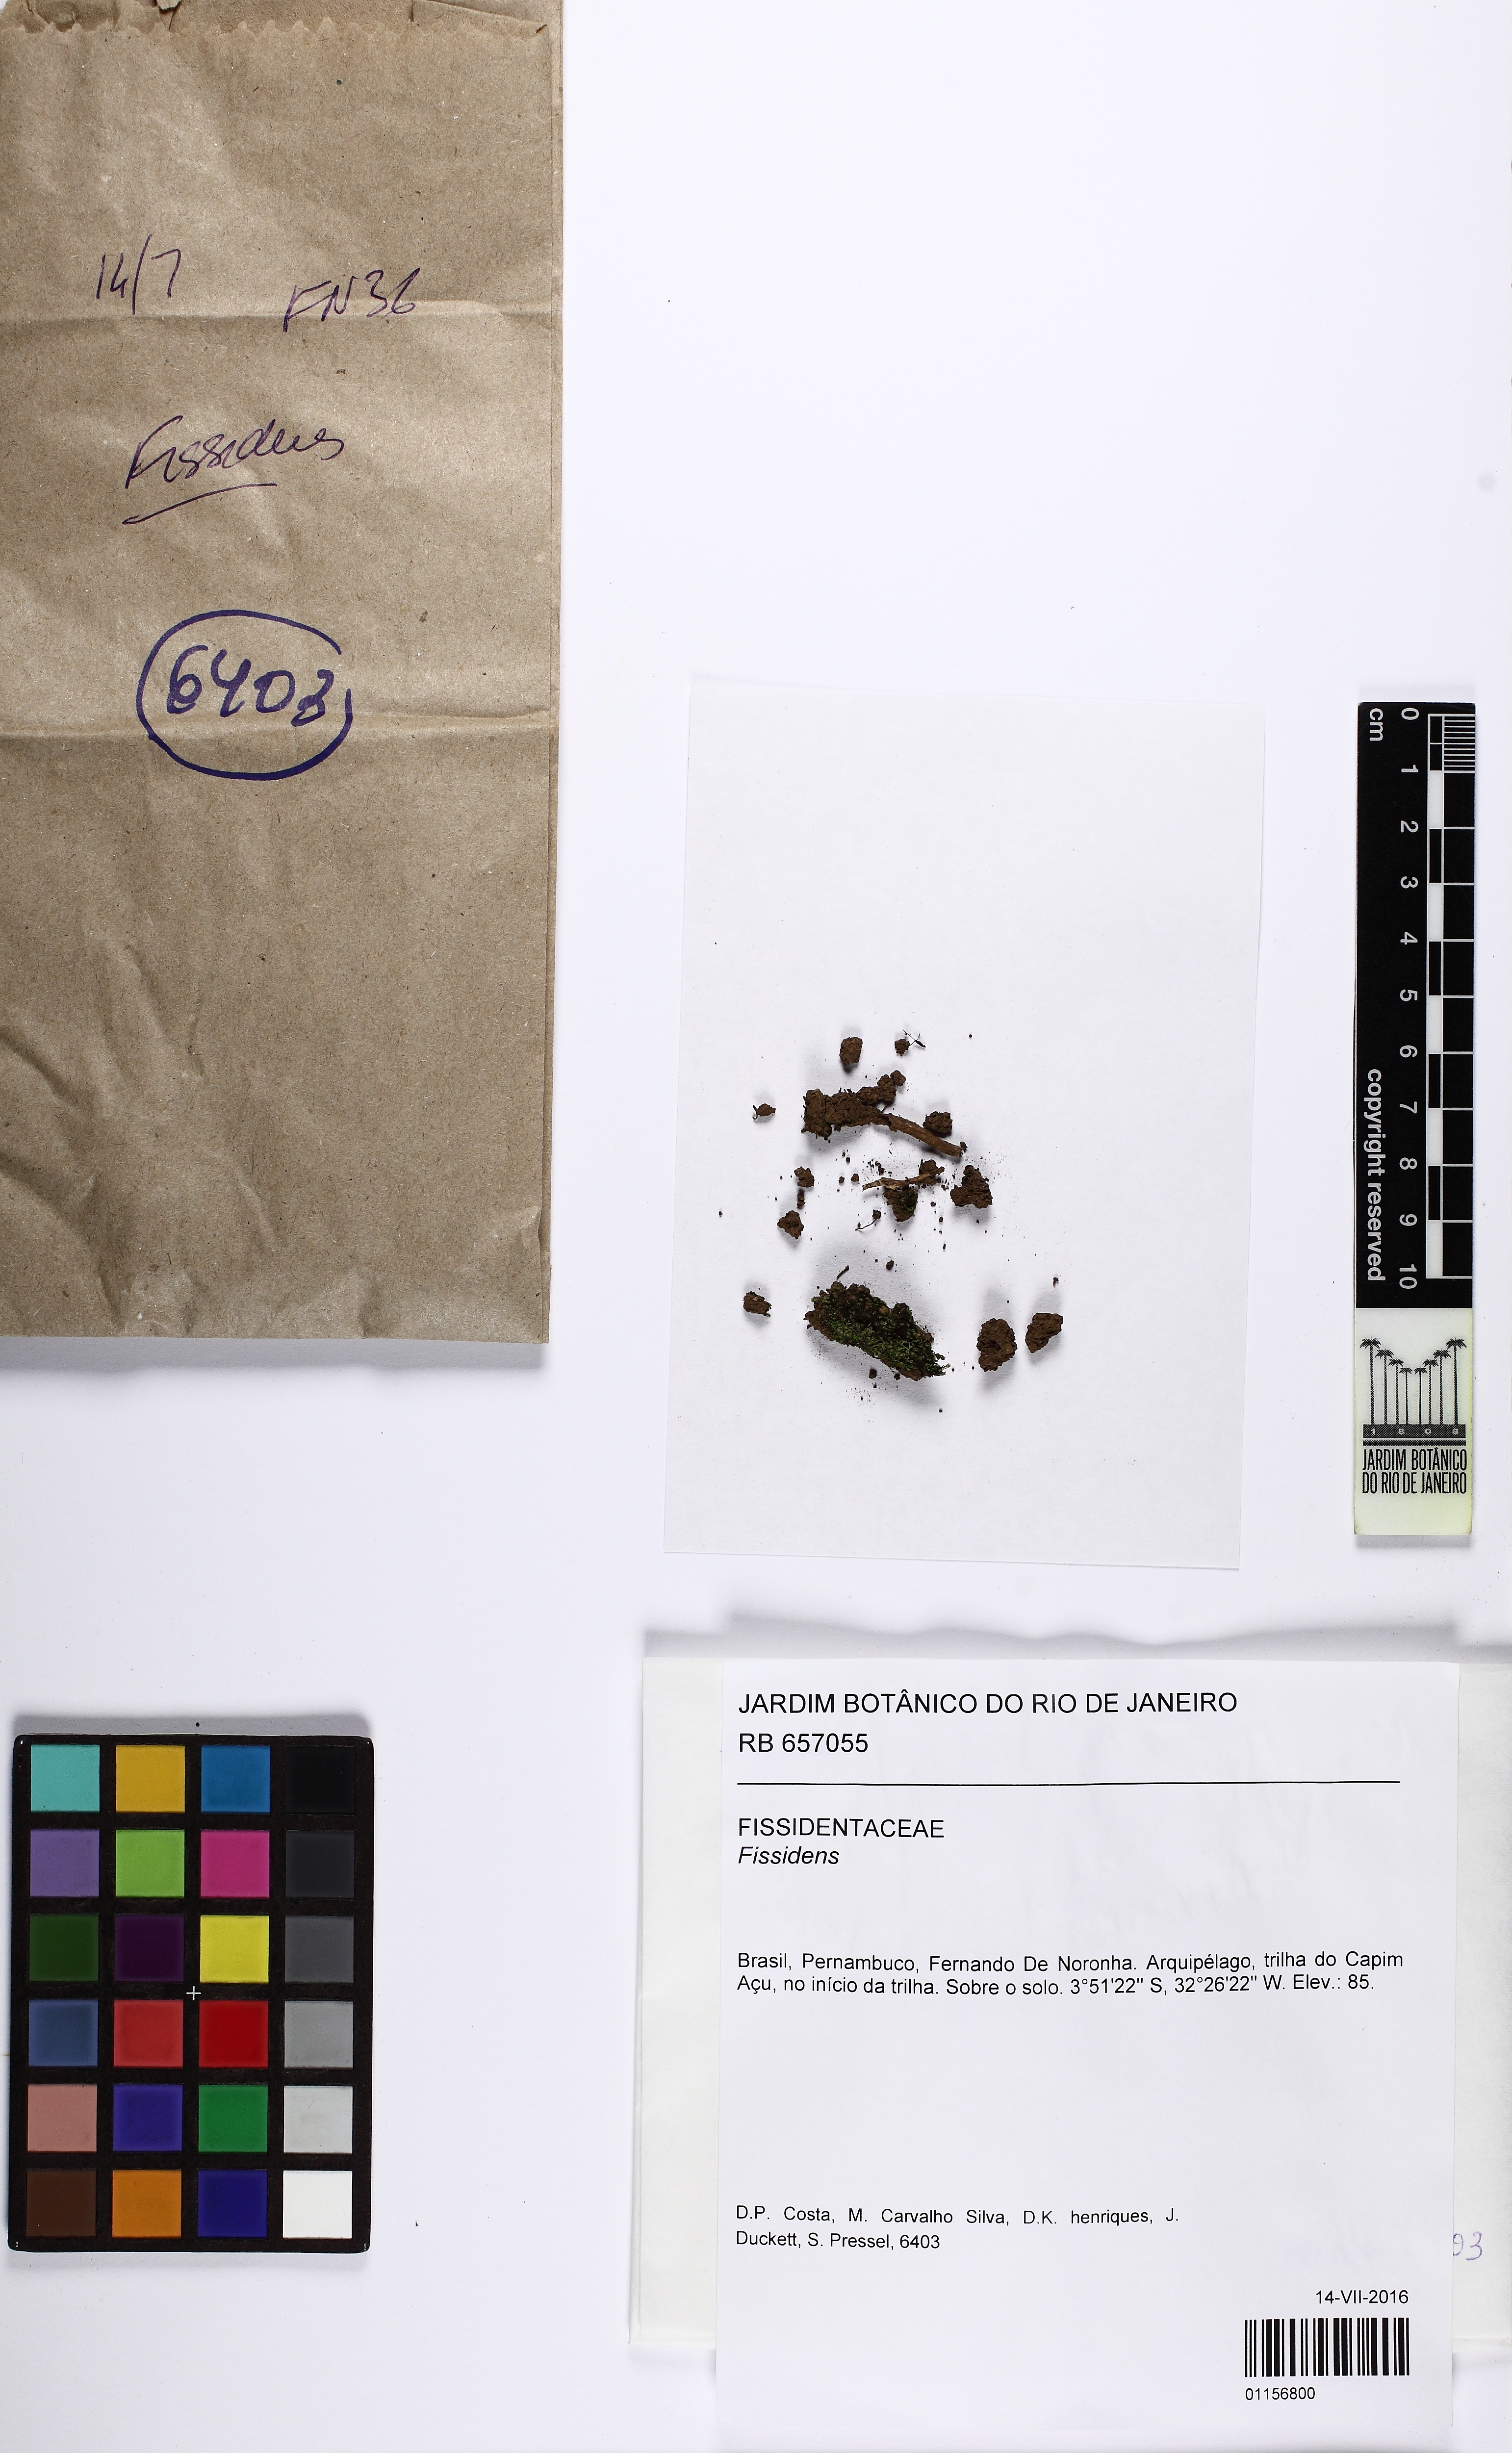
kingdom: Plantae
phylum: Bryophyta
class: Bryopsida
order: Dicranales
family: Fissidentaceae
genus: Fissidens
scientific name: Fissidens
